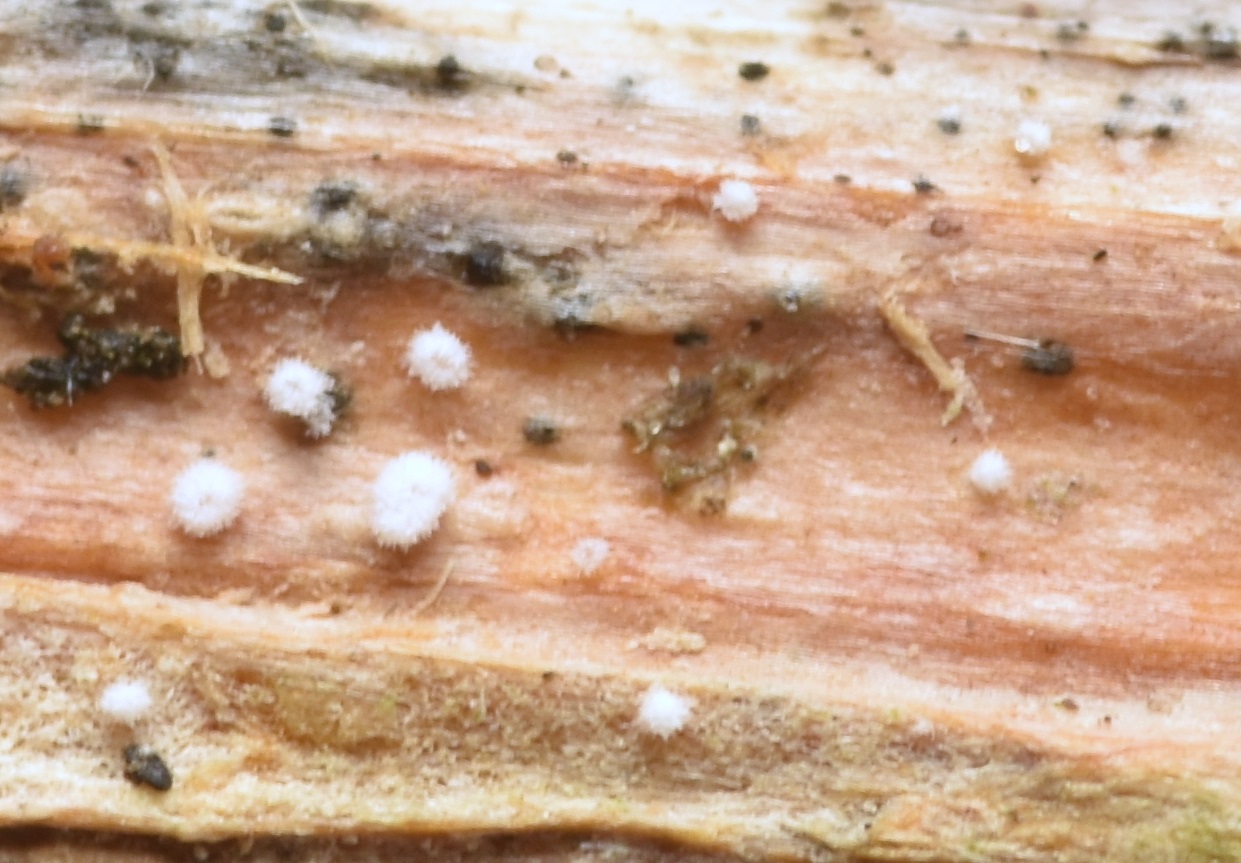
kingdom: Fungi
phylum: Basidiomycota
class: Agaricomycetes
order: Agaricales
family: Niaceae
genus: Lachnella
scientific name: Lachnella villosa
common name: hvid frynserede
